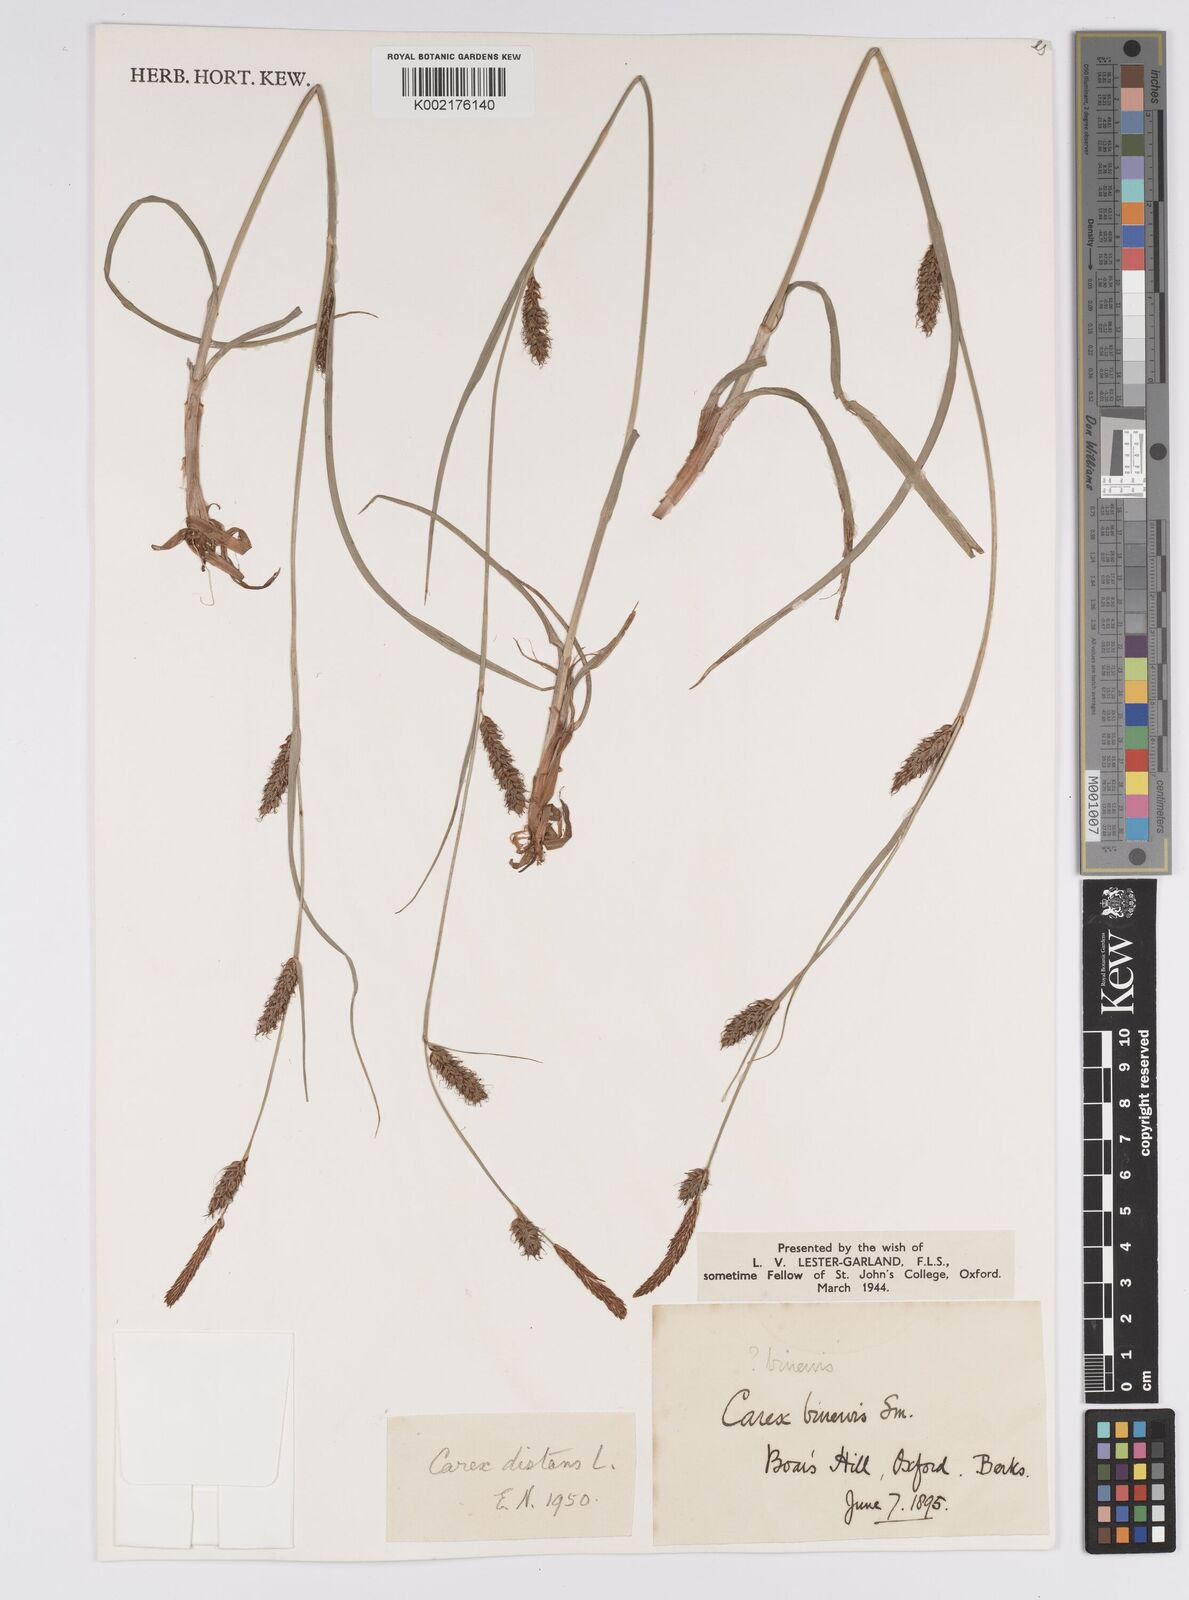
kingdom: Plantae
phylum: Tracheophyta
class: Liliopsida
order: Poales
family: Cyperaceae
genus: Carex
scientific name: Carex distans
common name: Distant sedge
